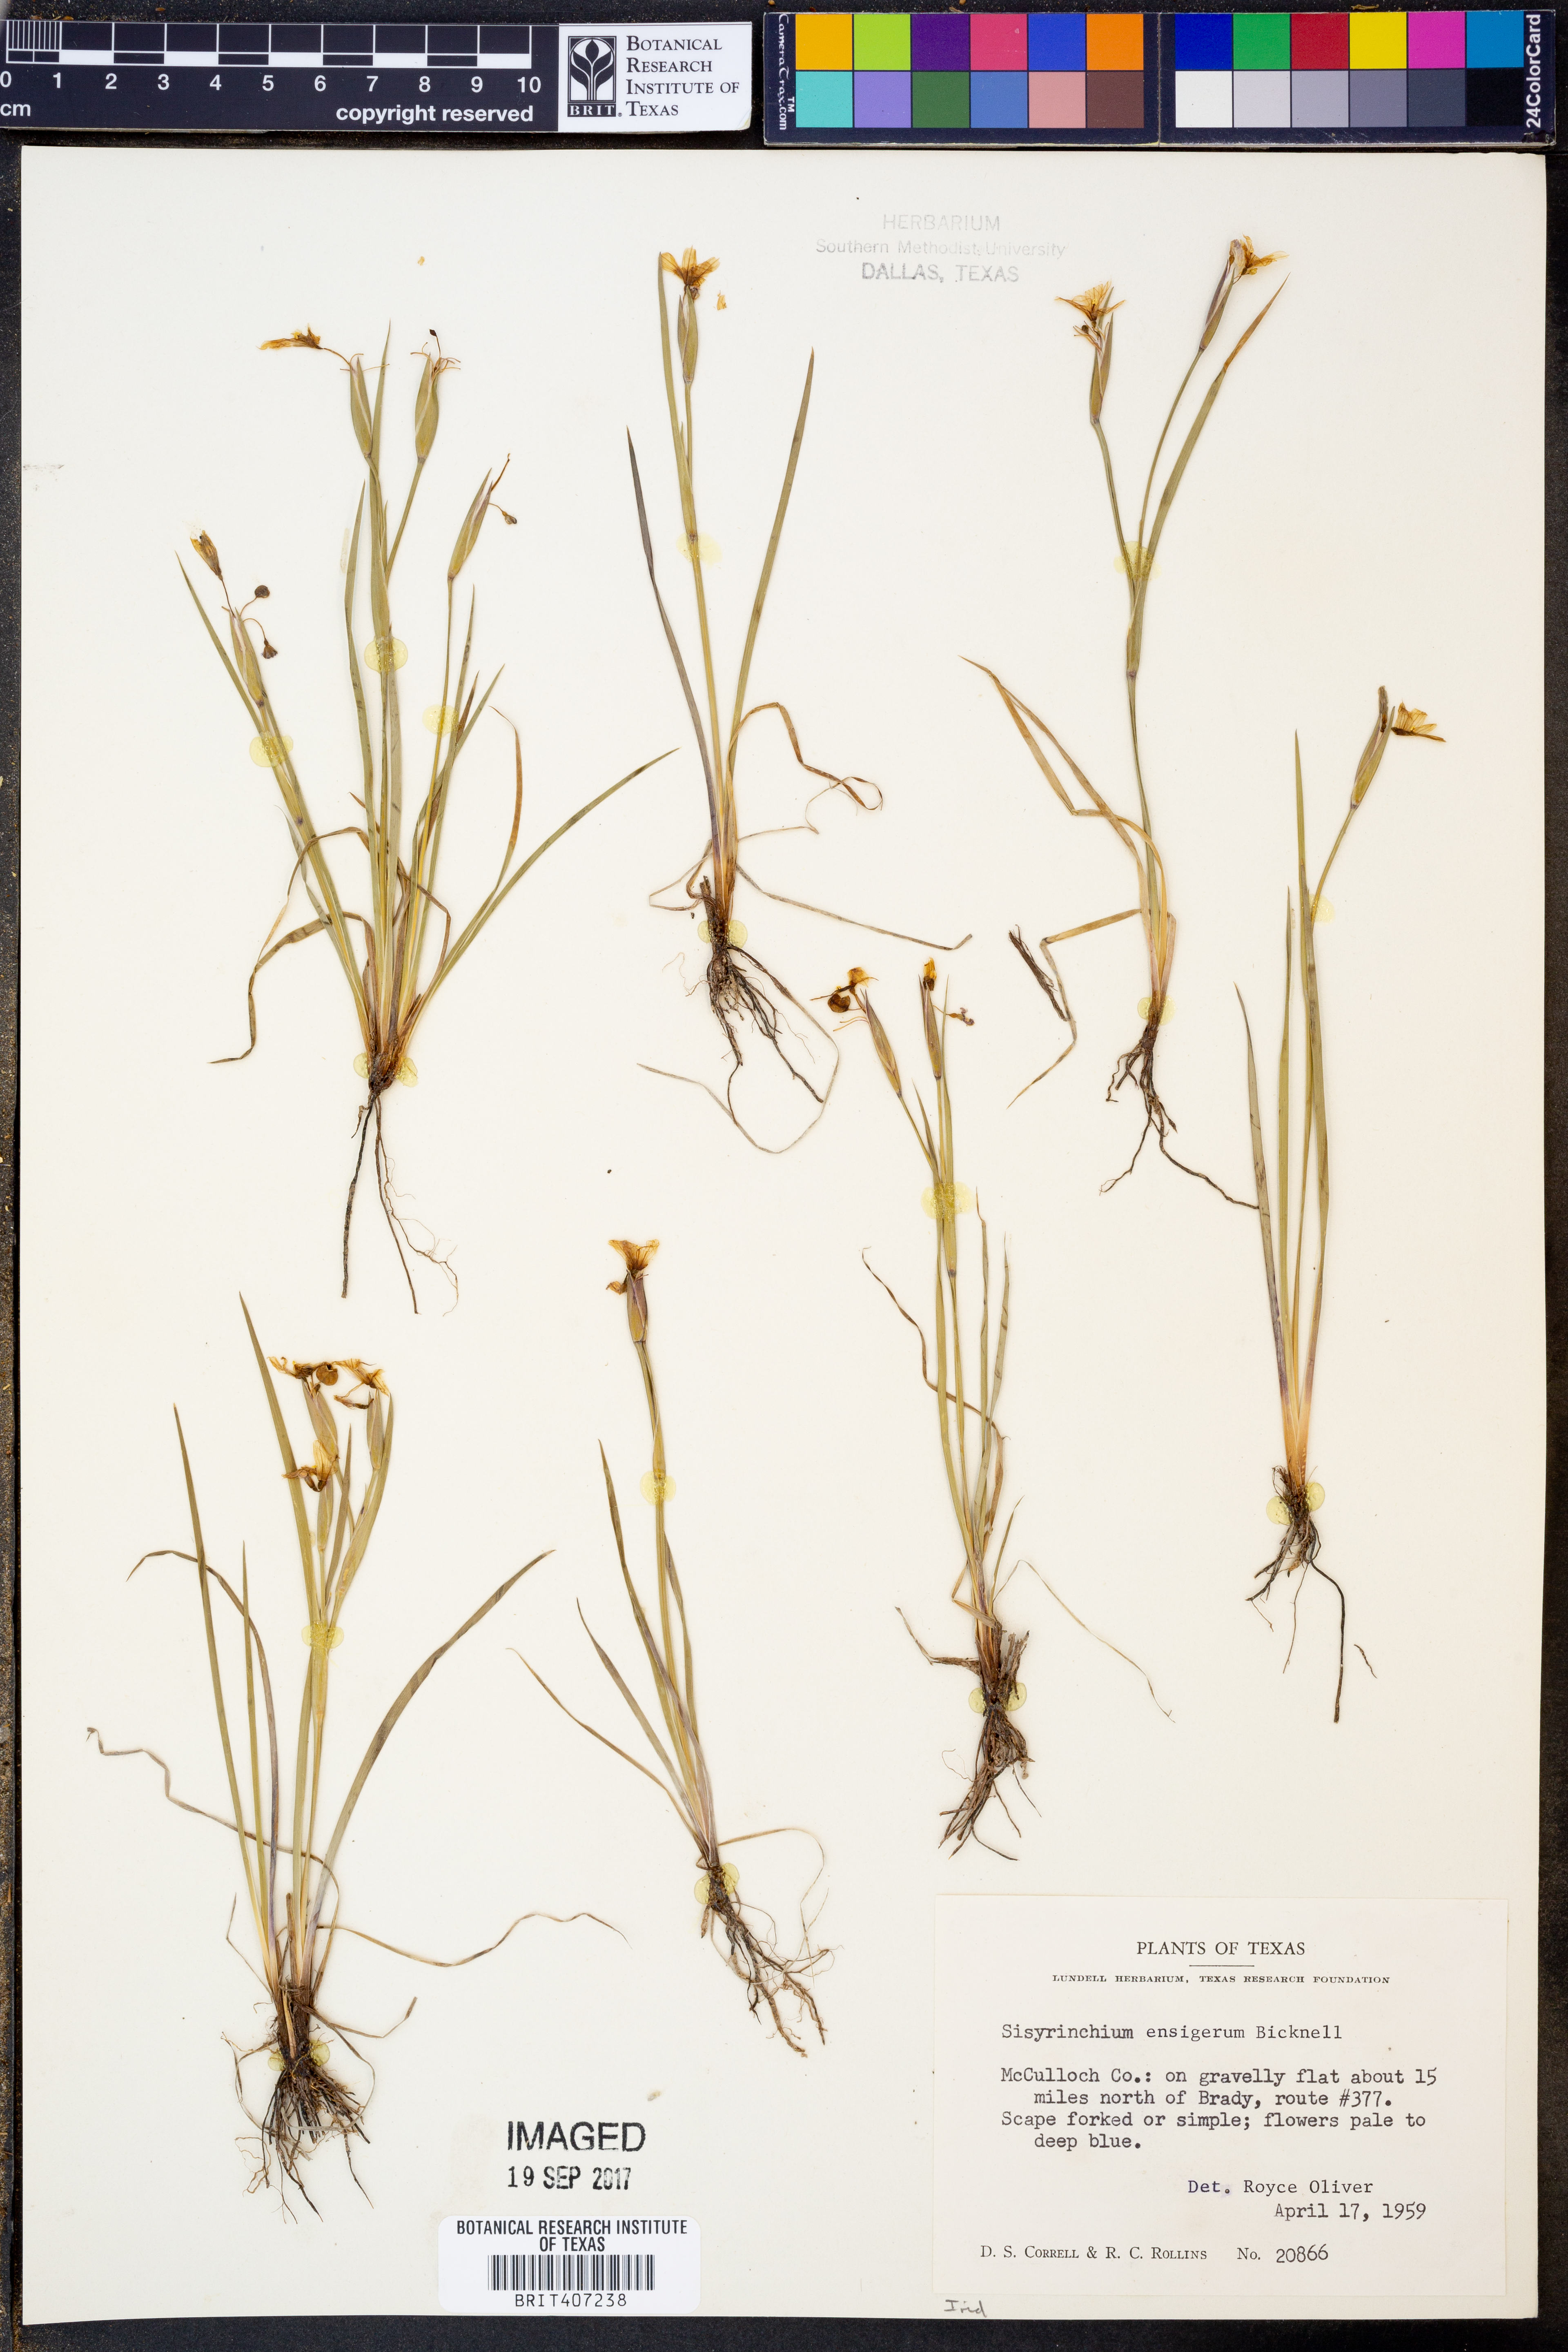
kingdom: Plantae
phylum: Tracheophyta
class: Liliopsida
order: Asparagales
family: Iridaceae
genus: Sisyrinchium
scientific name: Sisyrinchium ensigerum
